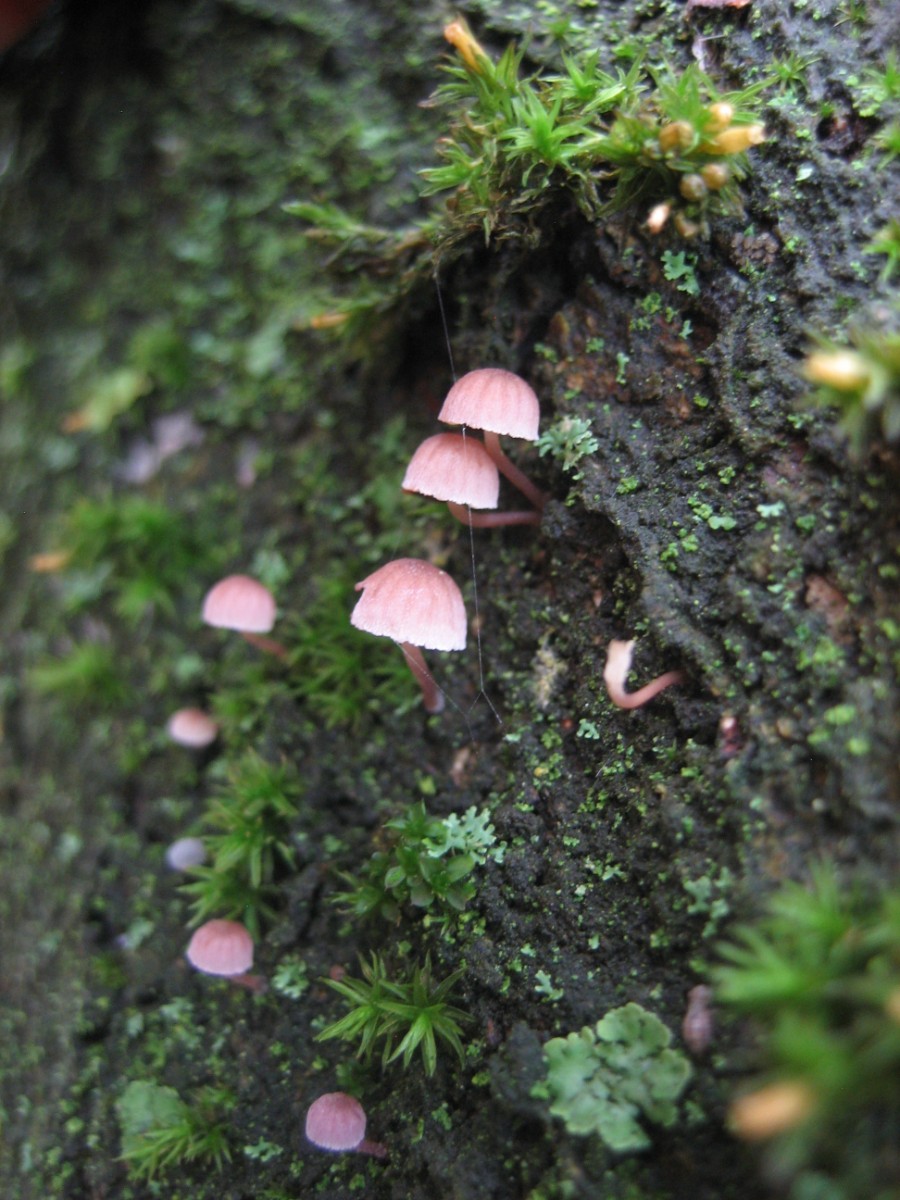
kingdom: Fungi
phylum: Basidiomycota
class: Agaricomycetes
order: Agaricales
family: Mycenaceae
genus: Mycena
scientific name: Mycena meliigena
